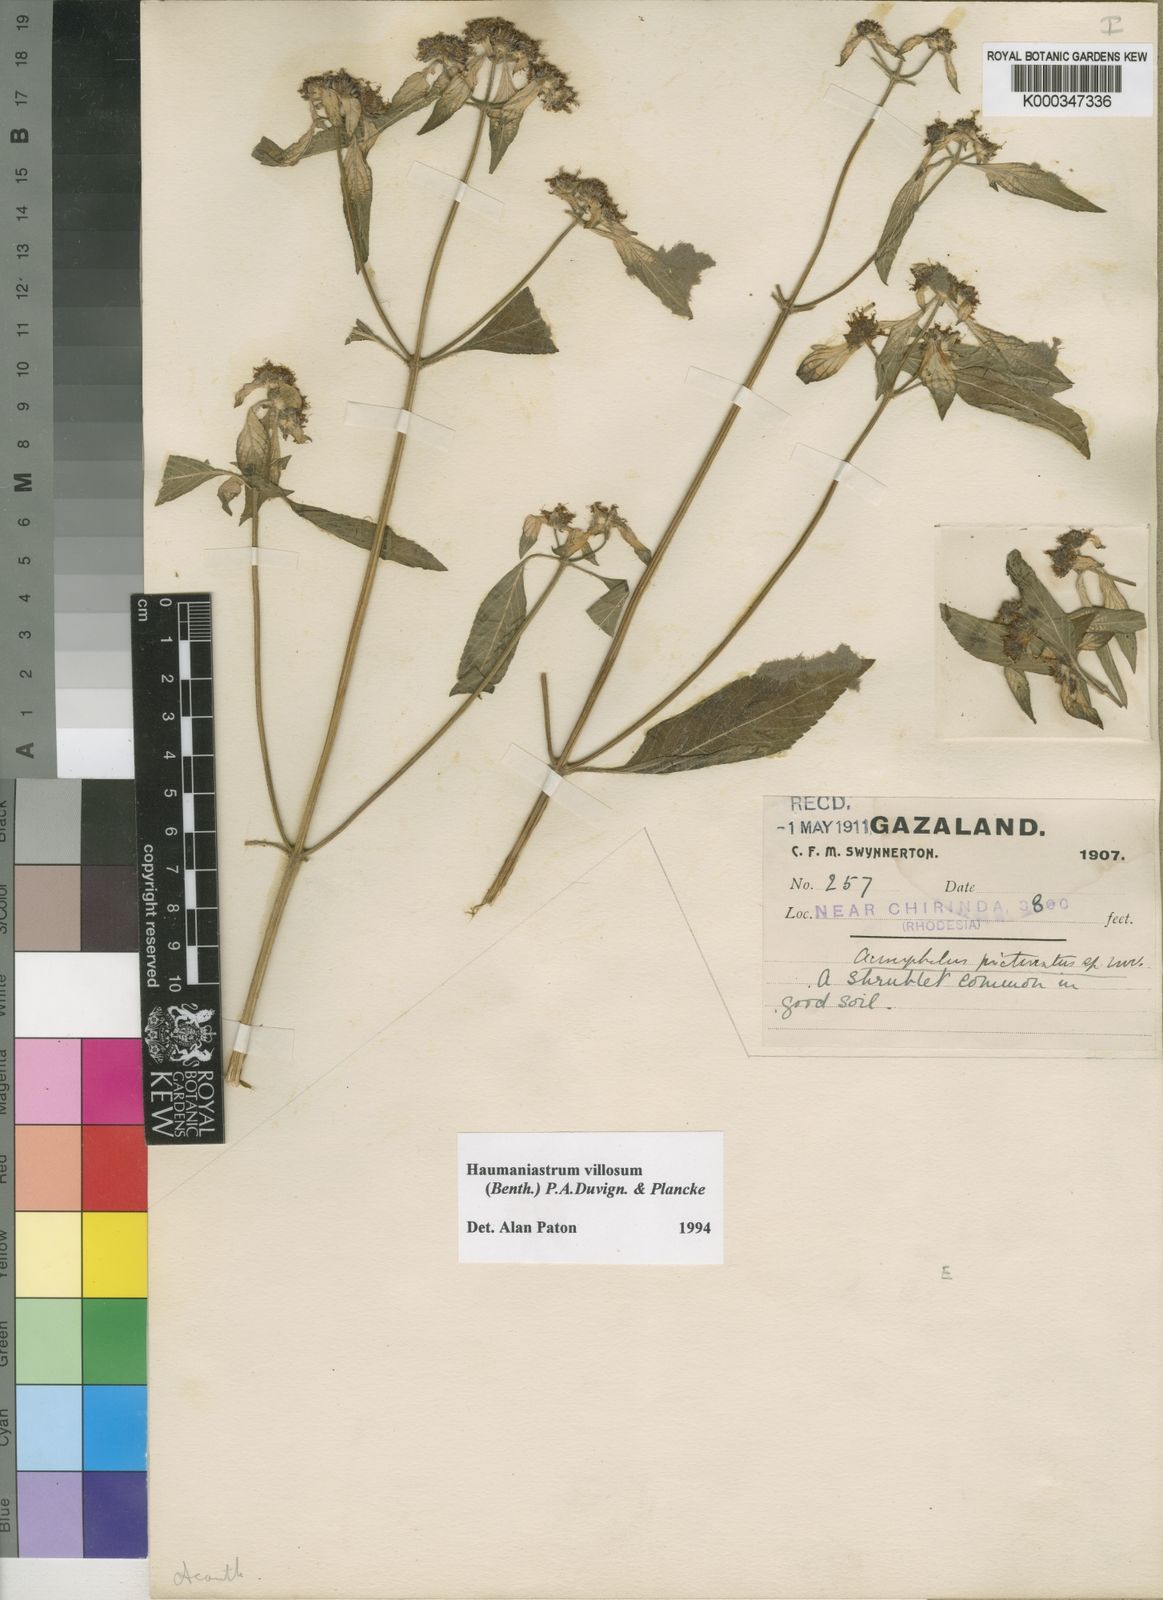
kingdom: Plantae
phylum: Tracheophyta
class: Magnoliopsida
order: Lamiales
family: Lamiaceae
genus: Haumaniastrum
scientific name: Haumaniastrum villosum
